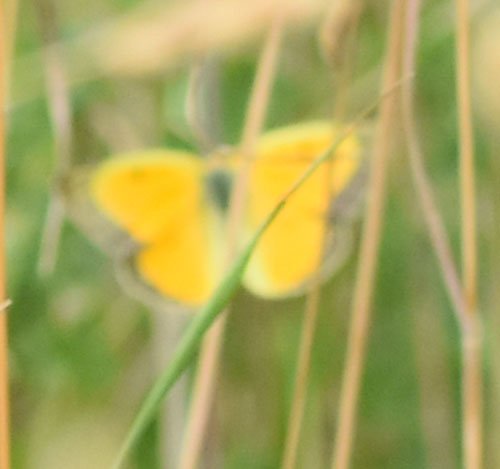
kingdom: Animalia
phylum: Arthropoda
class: Insecta
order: Lepidoptera
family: Pieridae
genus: Colias
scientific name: Colias eurytheme
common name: Orange Sulphur
